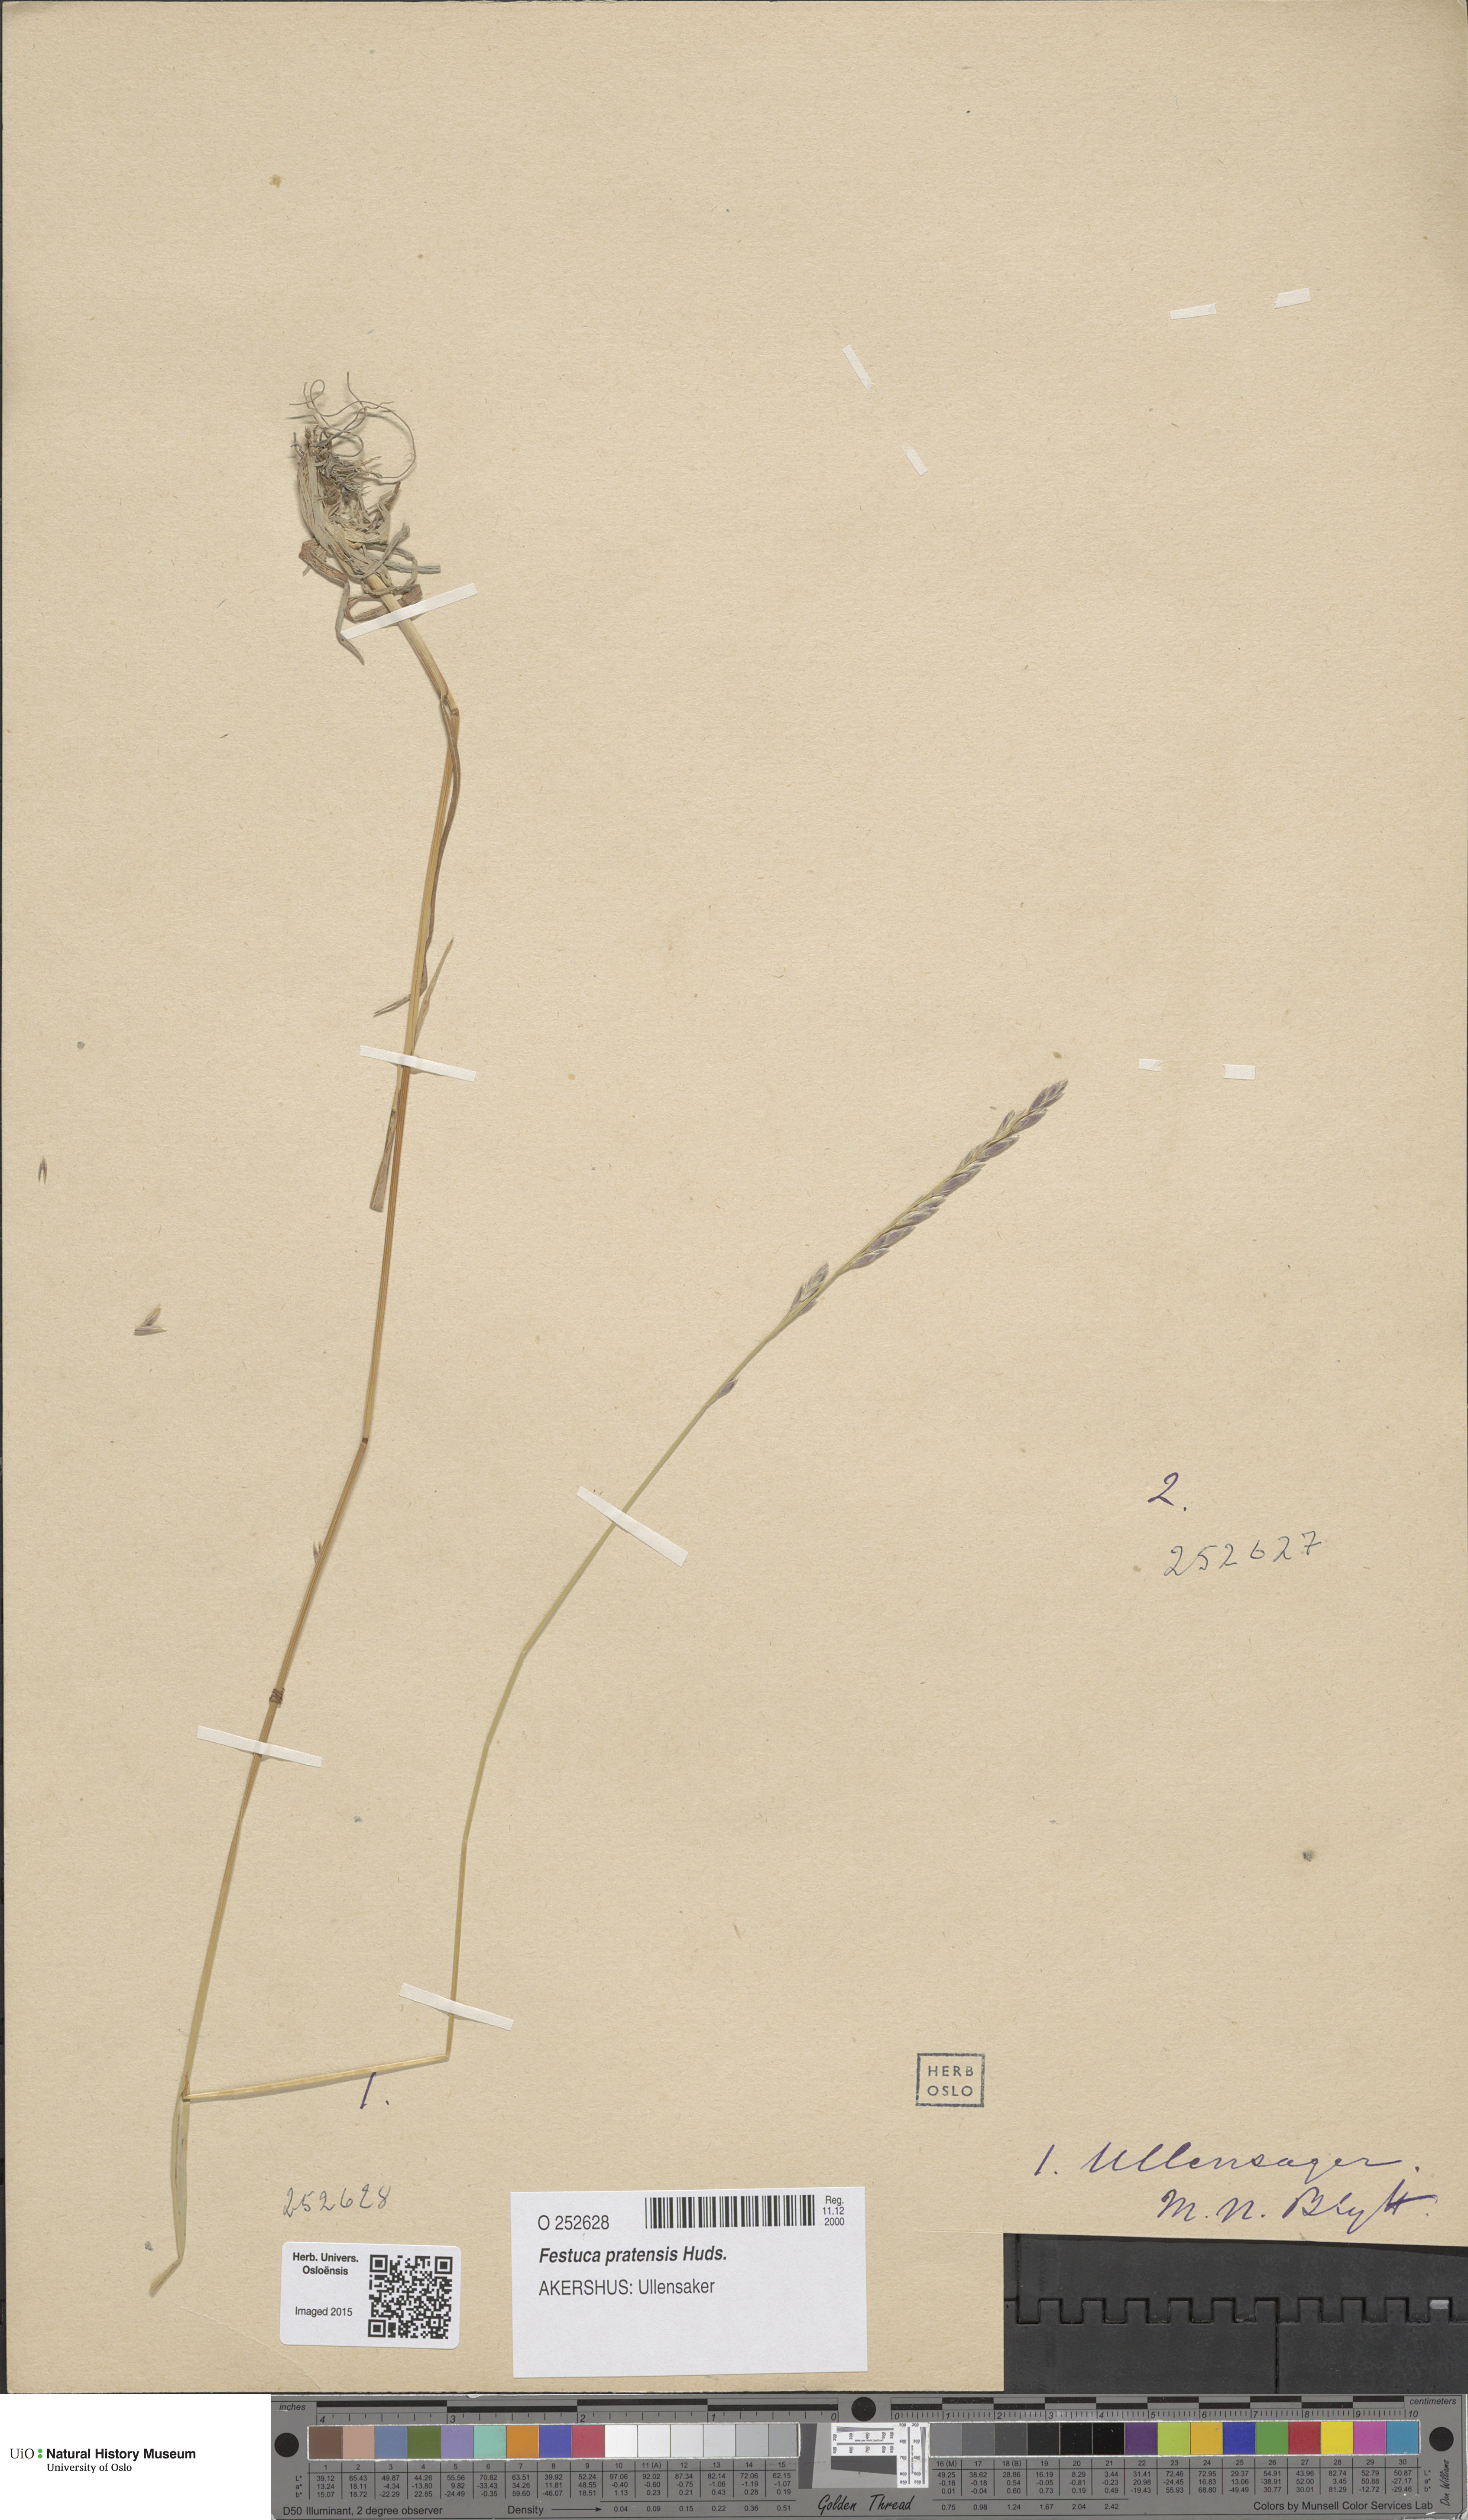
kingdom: Plantae
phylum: Tracheophyta
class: Liliopsida
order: Poales
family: Poaceae
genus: Lolium
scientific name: Lolium pratense
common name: Dover grass
